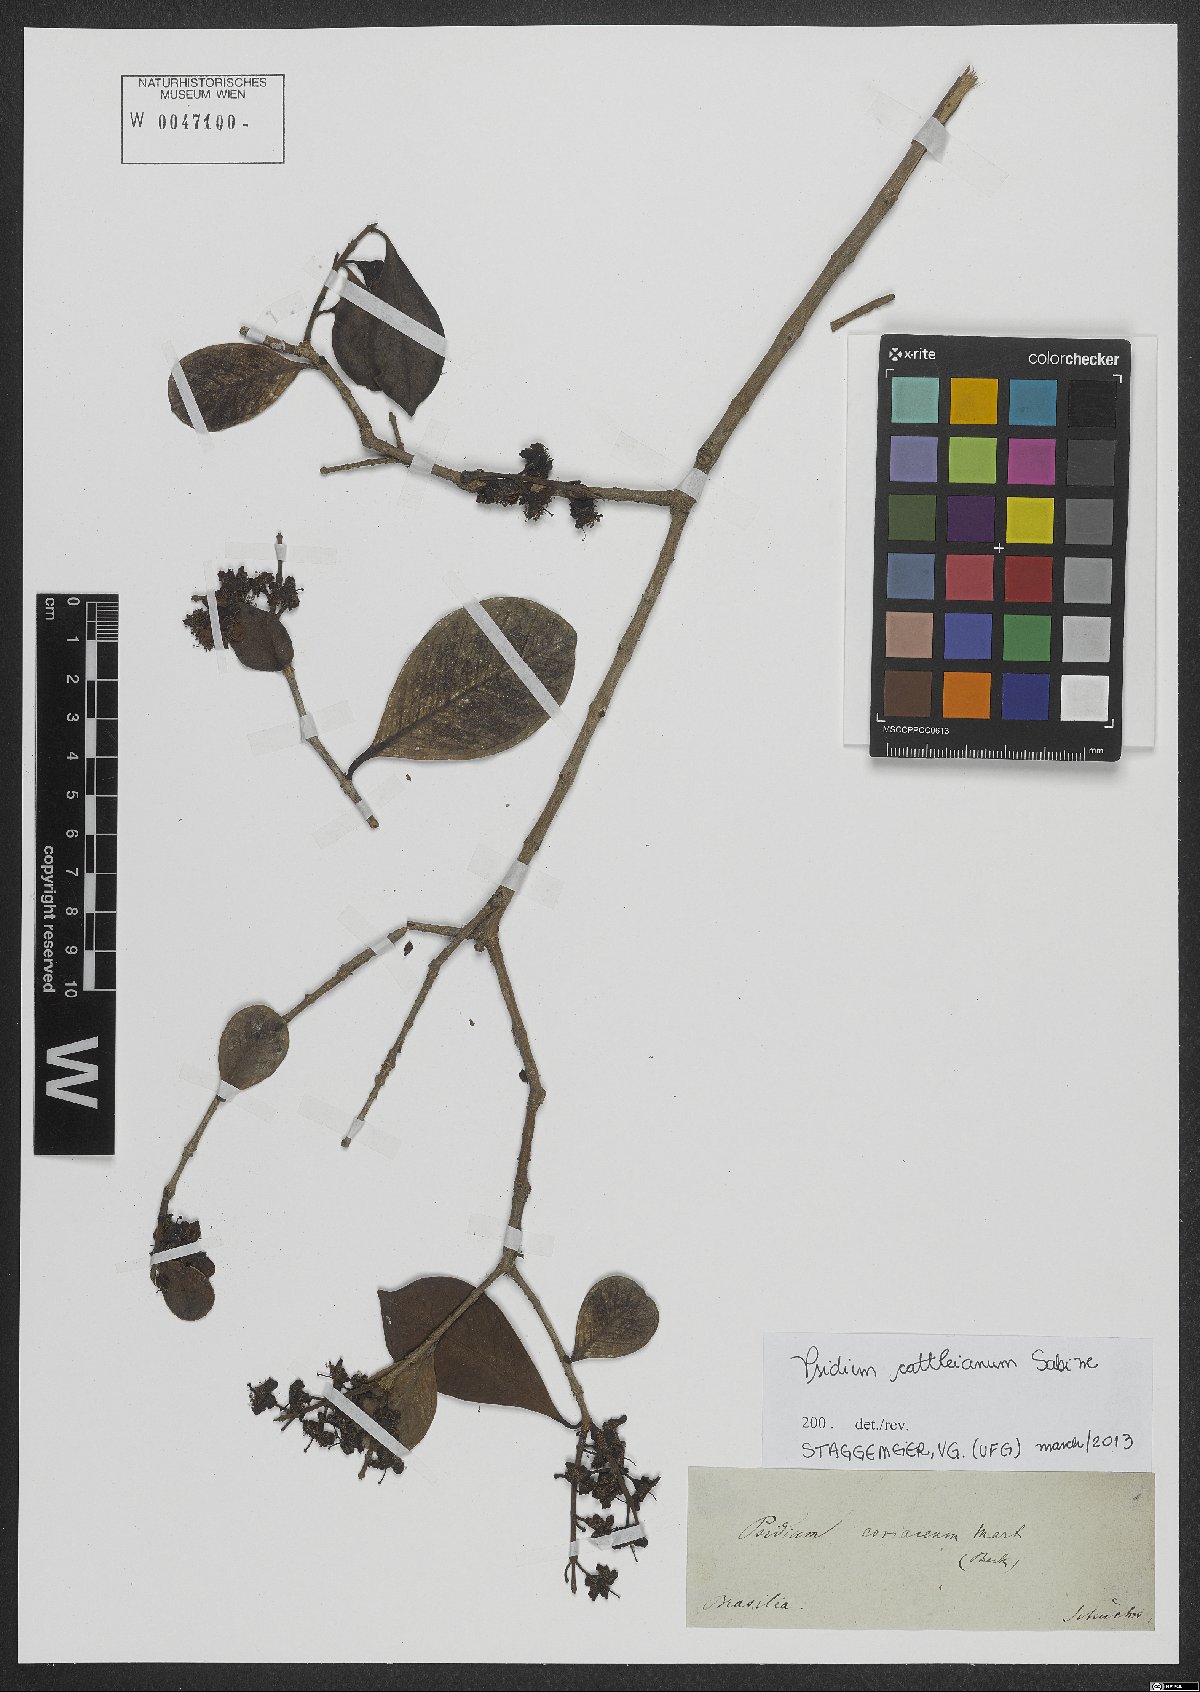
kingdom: Plantae
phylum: Tracheophyta
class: Magnoliopsida
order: Myrtales
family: Myrtaceae
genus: Psidium
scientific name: Psidium cattleianum
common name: Strawberry guava
